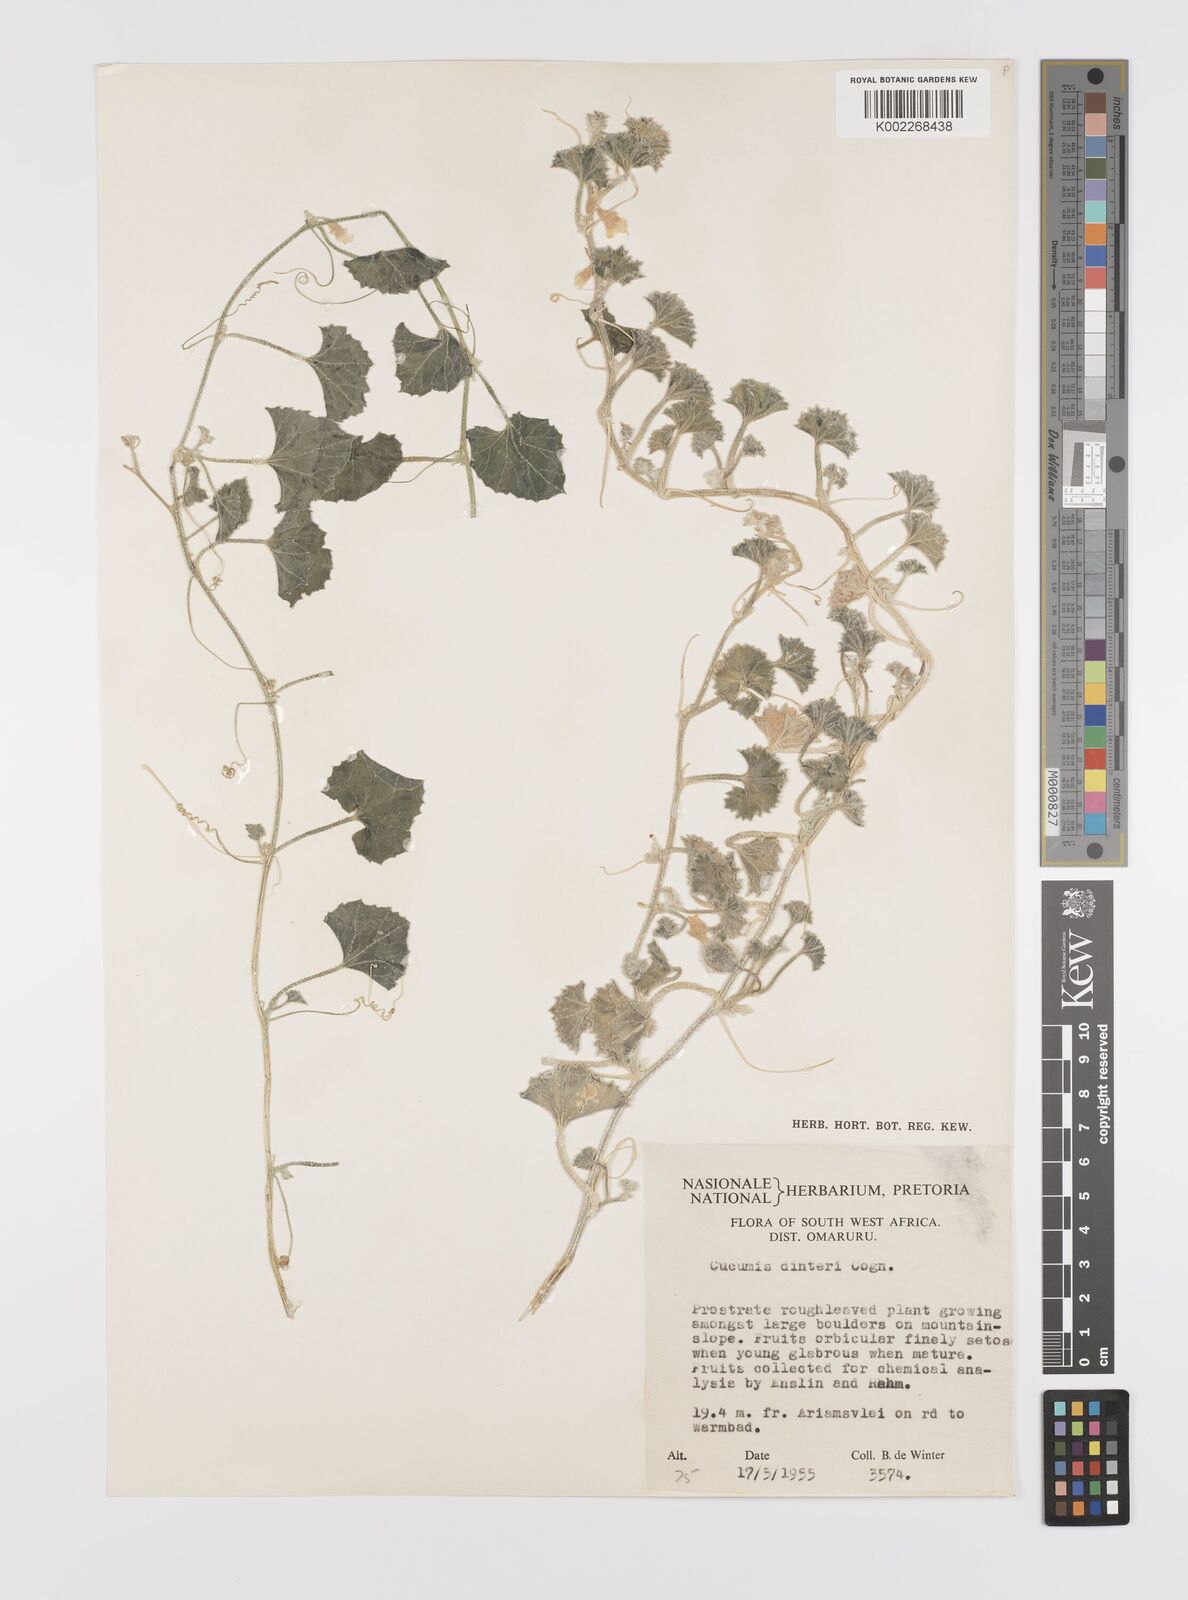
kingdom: Plantae
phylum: Tracheophyta
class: Magnoliopsida
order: Cucurbitales
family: Cucurbitaceae
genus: Cucumis
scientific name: Cucumis sagittatus
